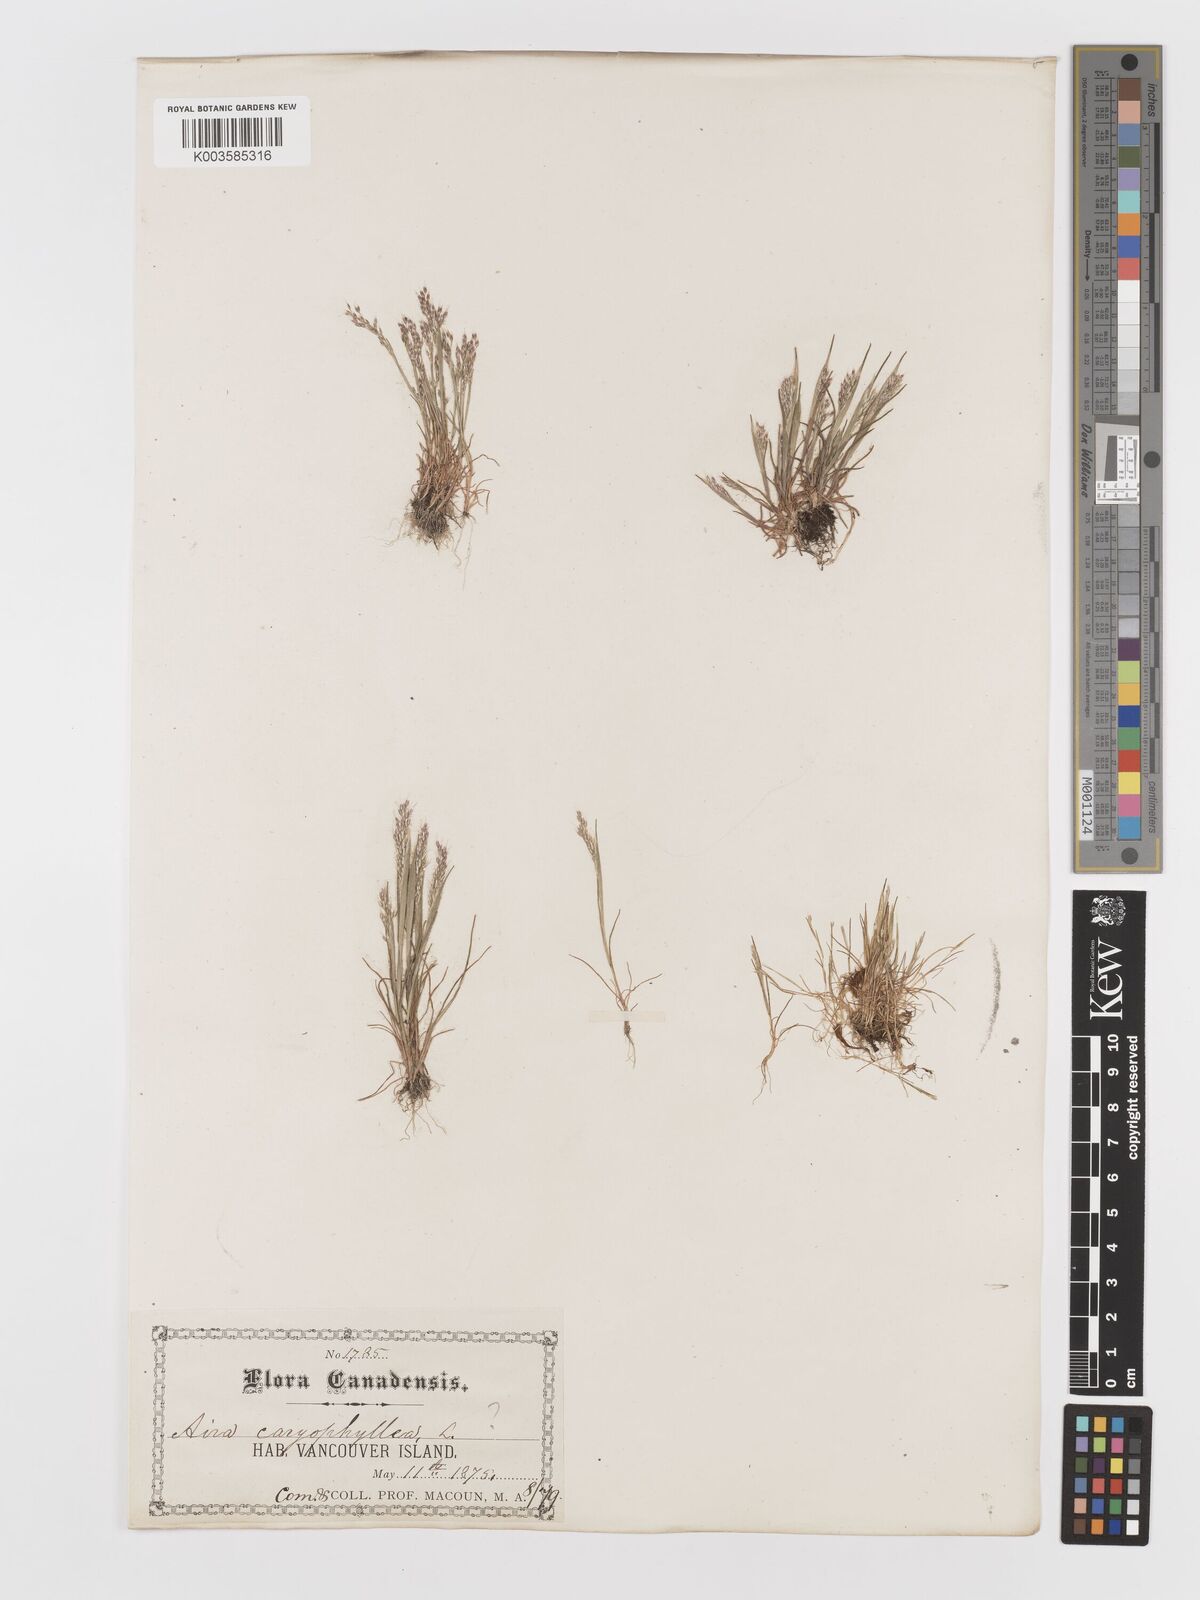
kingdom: Plantae
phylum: Tracheophyta
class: Liliopsida
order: Poales
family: Poaceae
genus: Aira
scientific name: Aira praecox
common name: Early hair-grass
